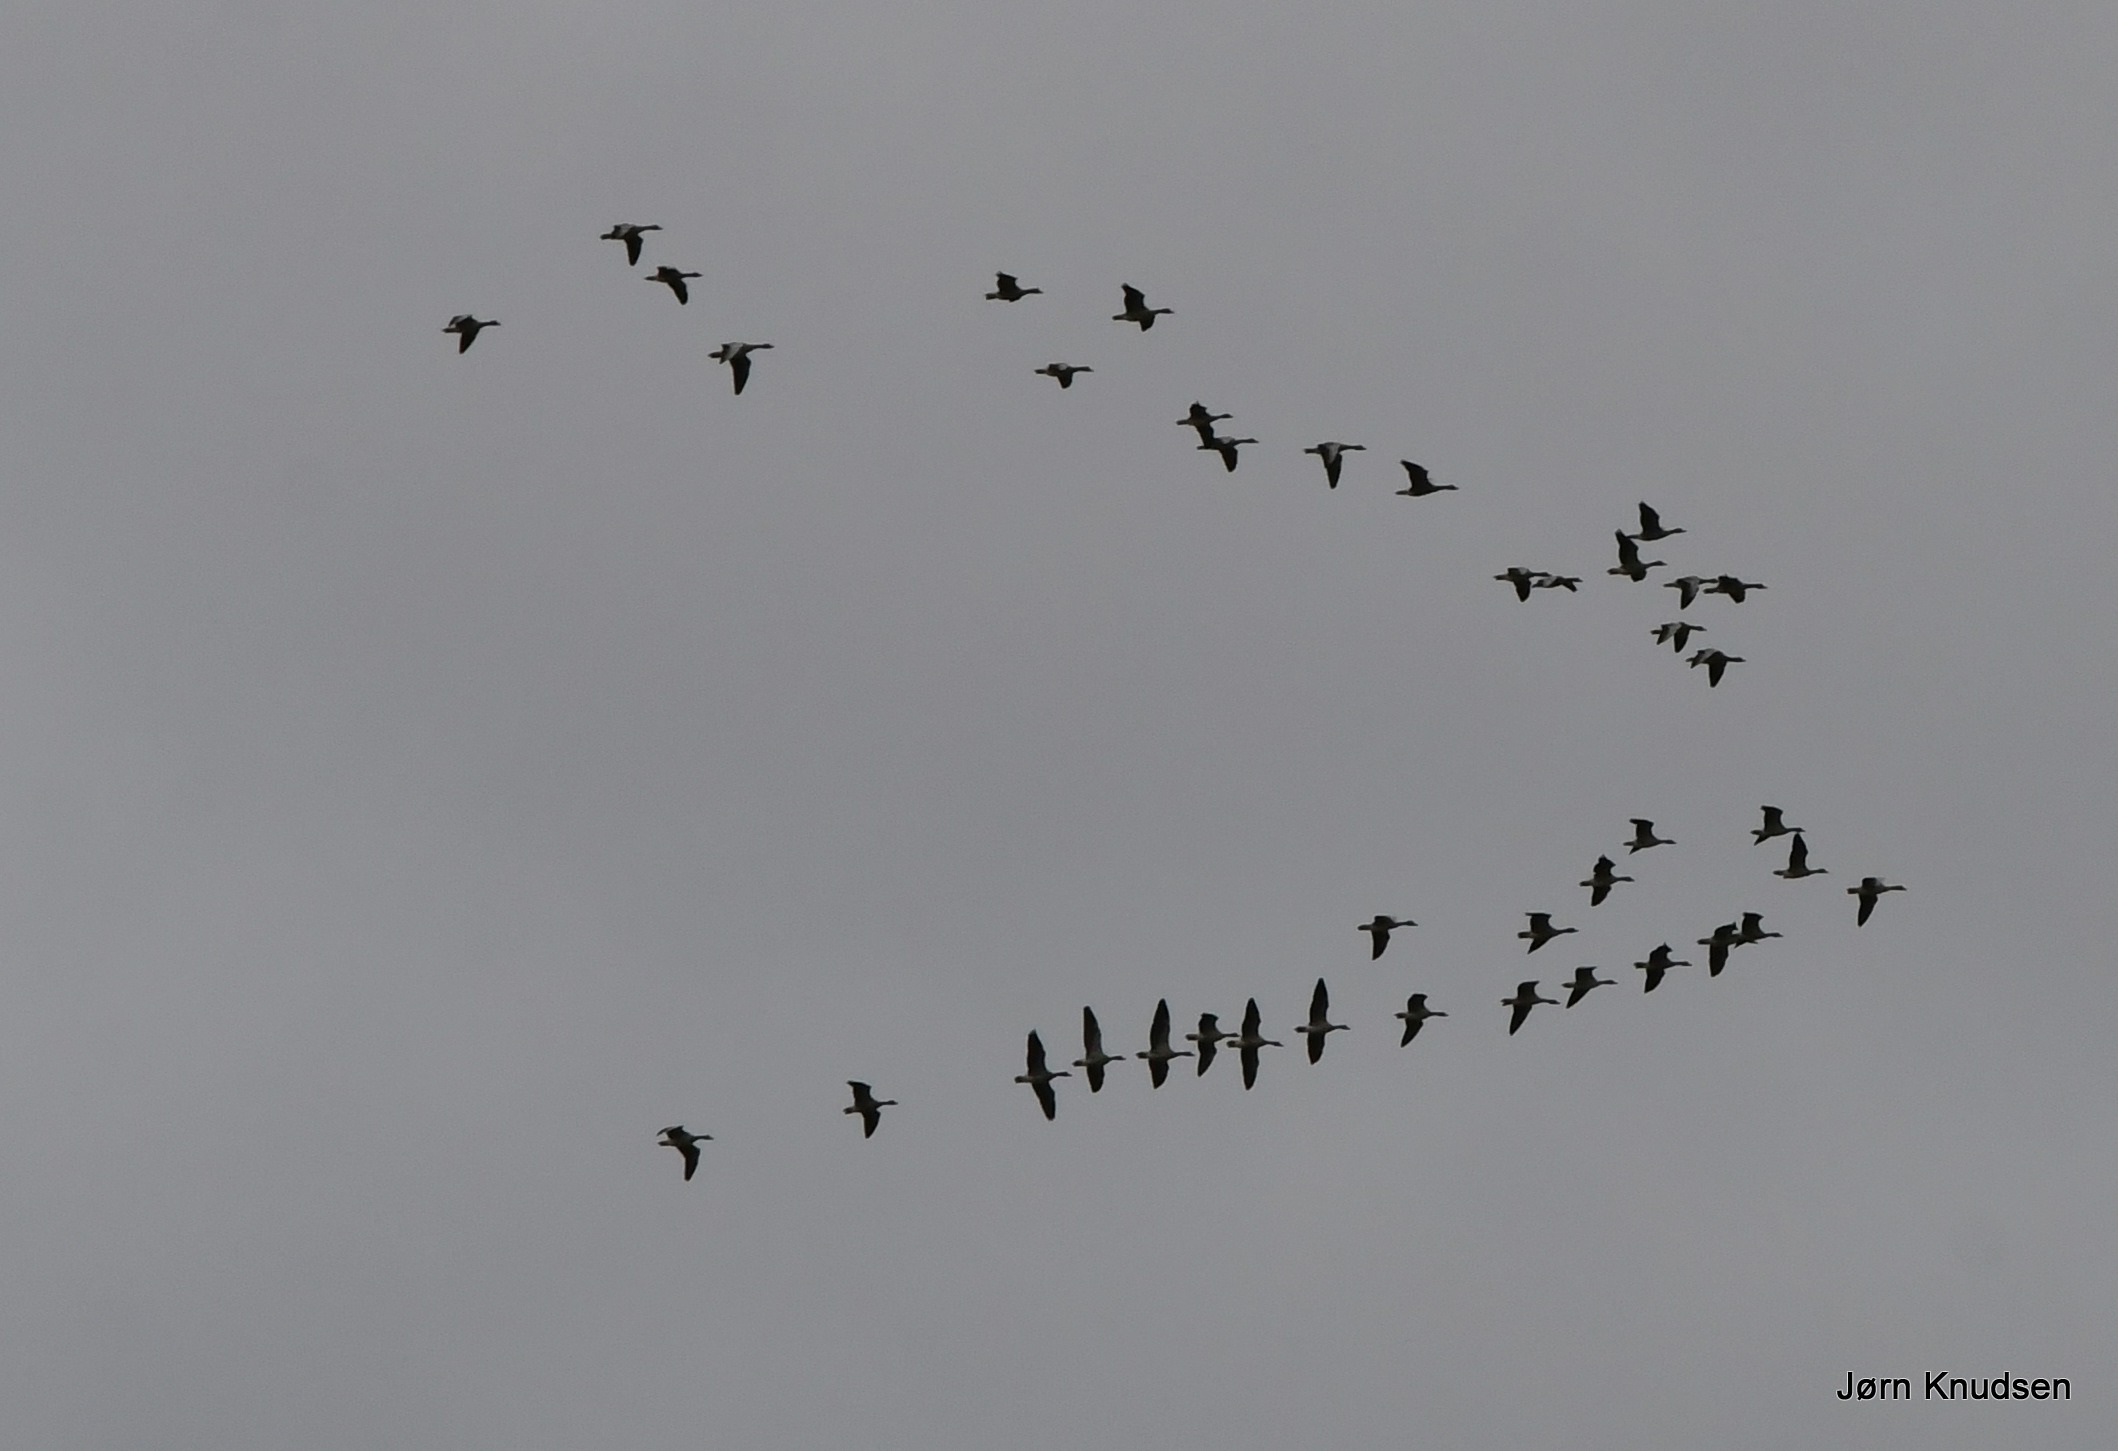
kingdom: Animalia
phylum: Chordata
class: Aves
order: Anseriformes
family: Anatidae
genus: Anser
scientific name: Anser anser
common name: Grågås
